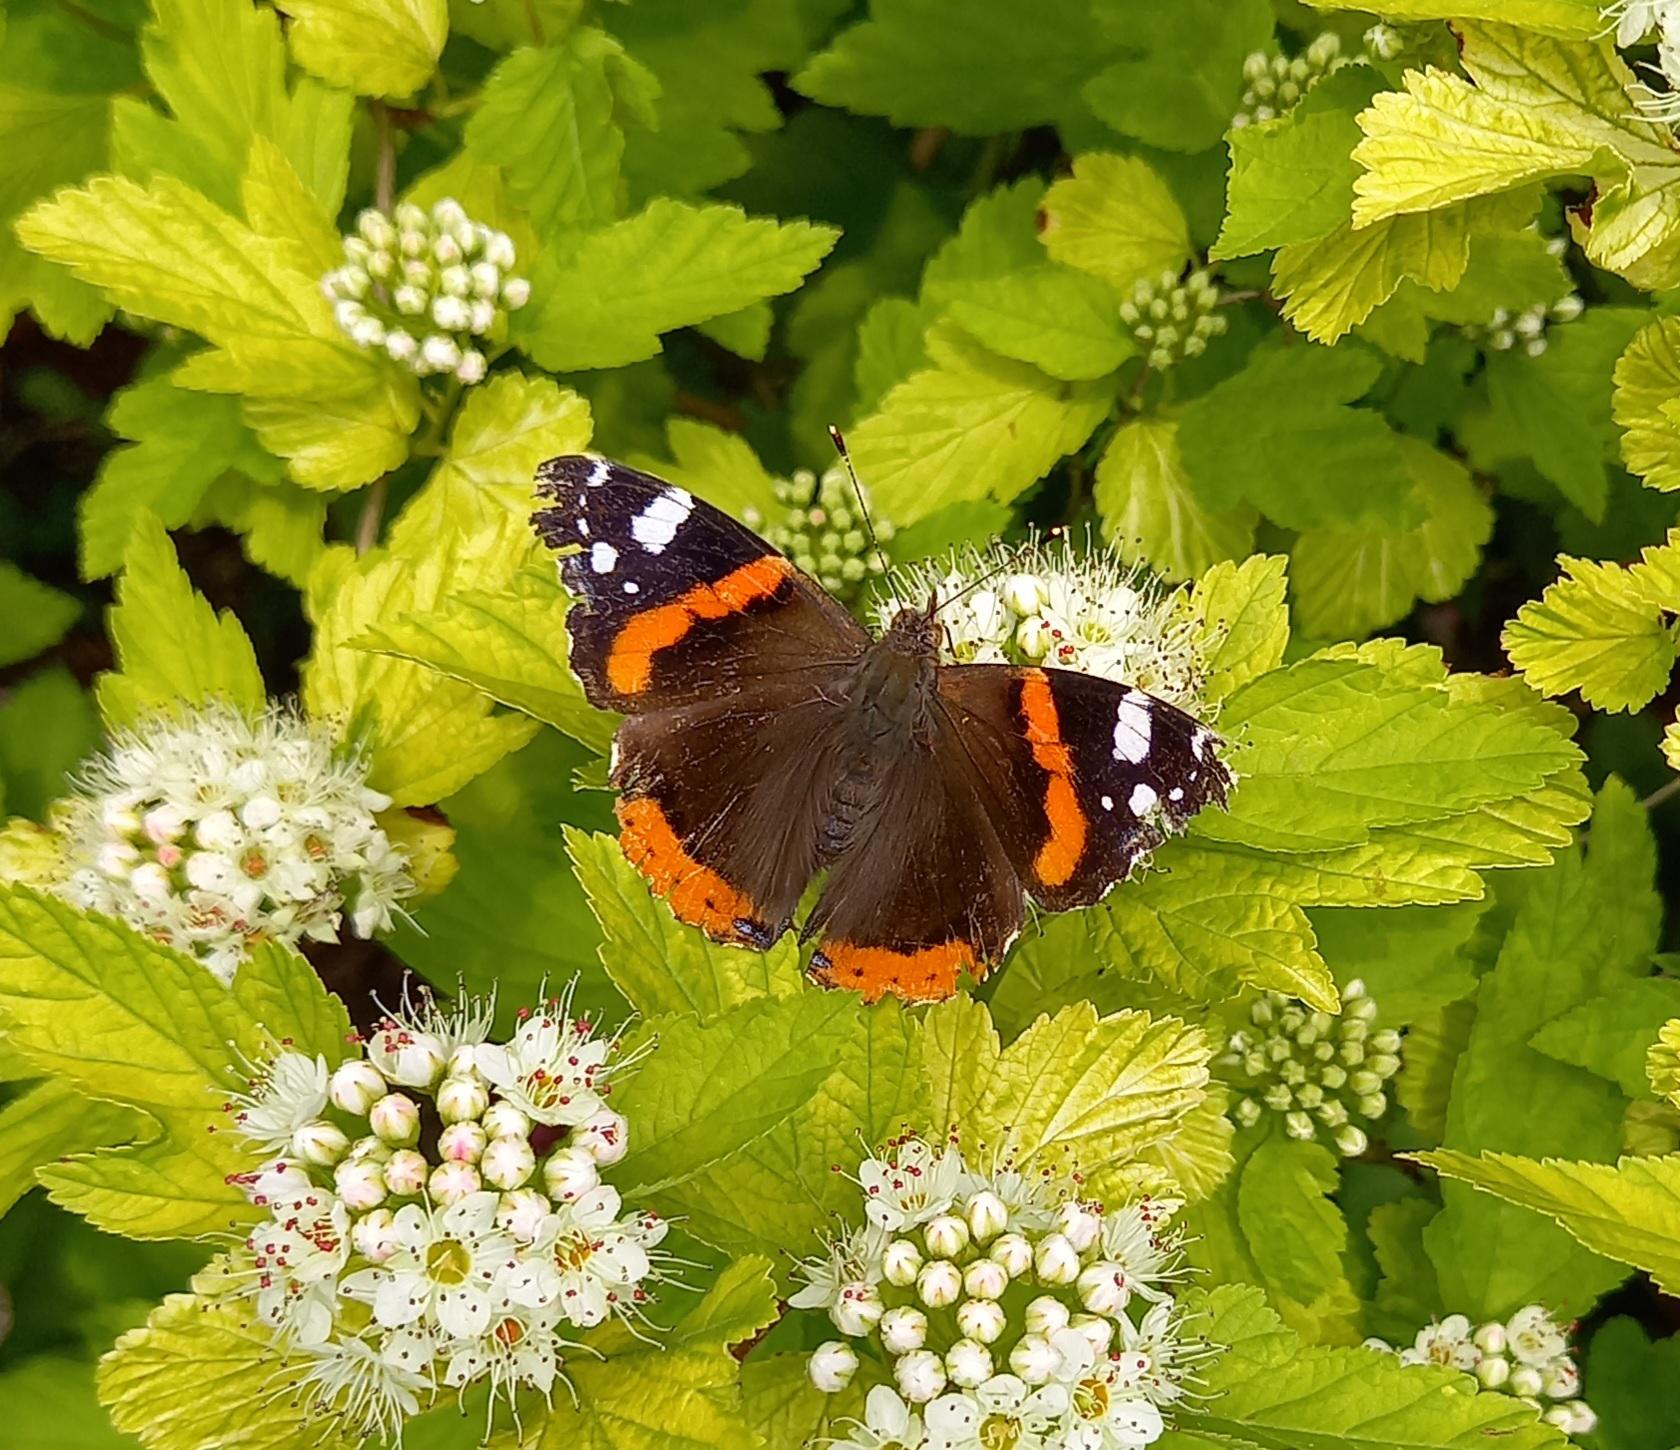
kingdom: Animalia
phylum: Arthropoda
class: Insecta
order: Lepidoptera
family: Nymphalidae
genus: Vanessa
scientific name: Vanessa atalanta
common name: Admiral
